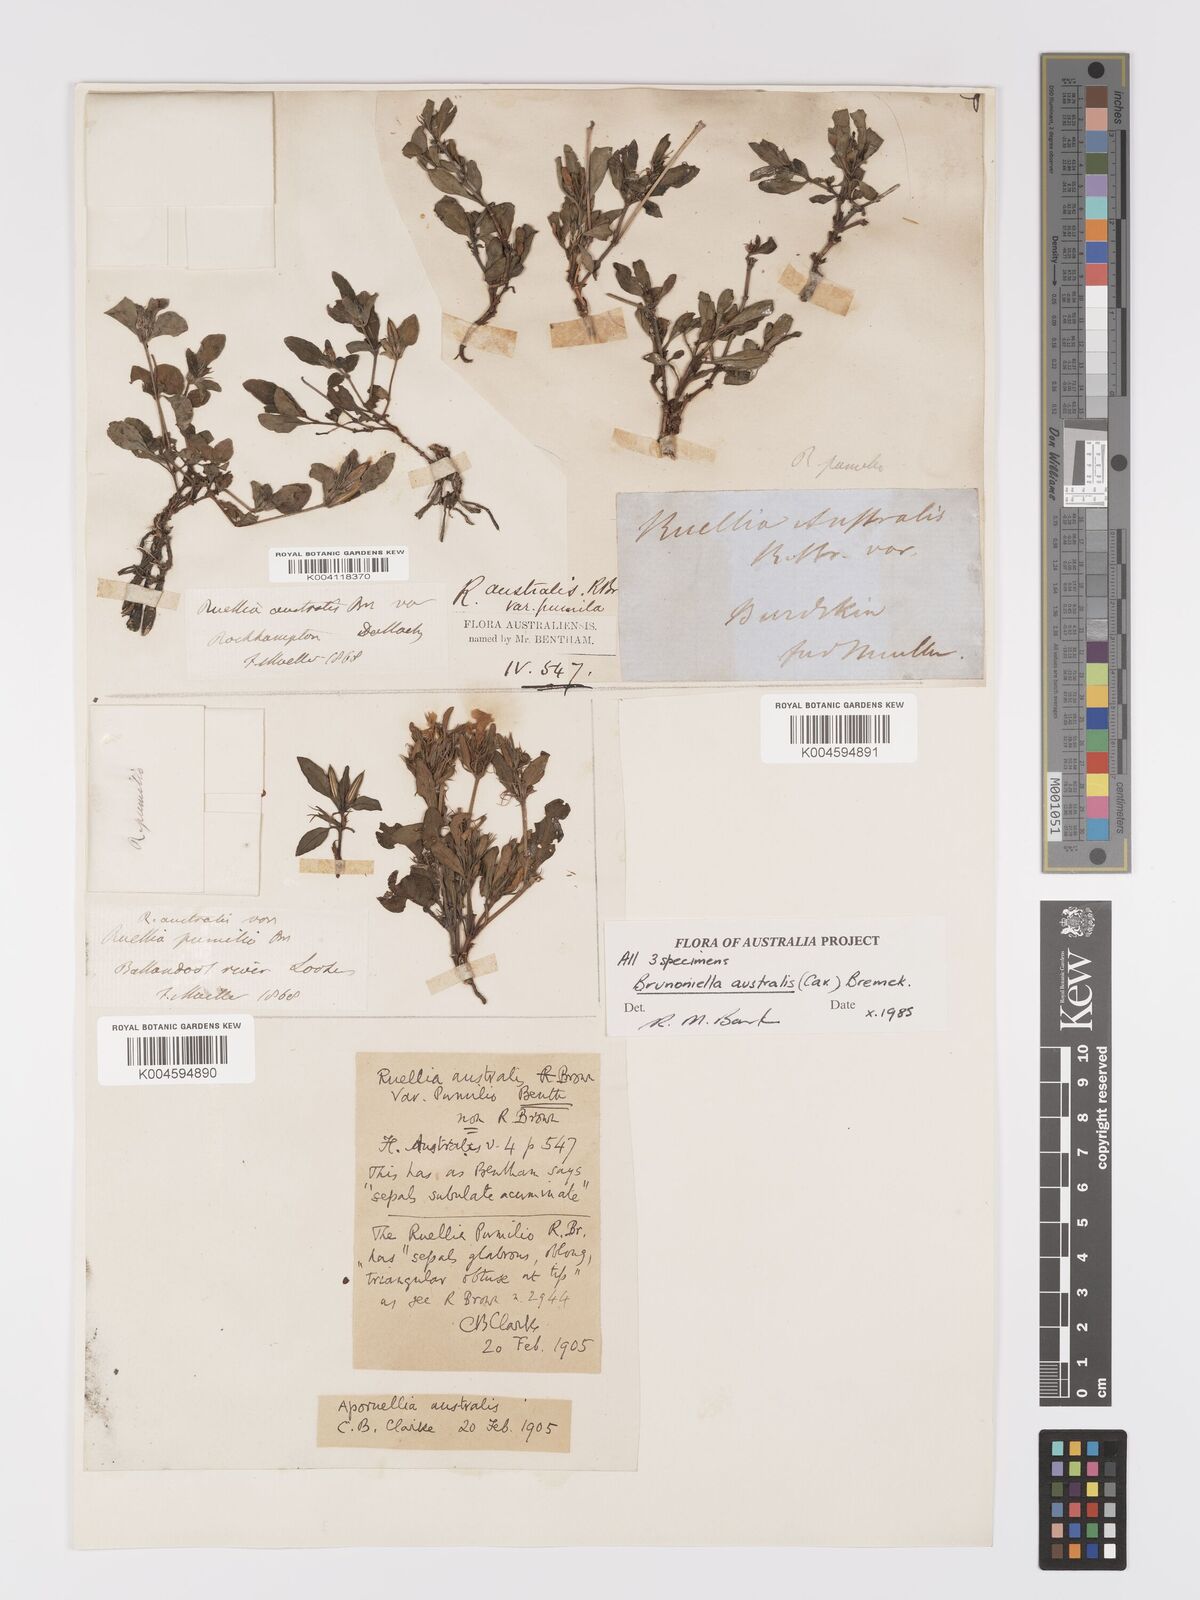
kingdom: Plantae
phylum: Tracheophyta
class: Magnoliopsida
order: Lamiales
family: Acanthaceae
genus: Brunoniella
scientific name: Brunoniella
